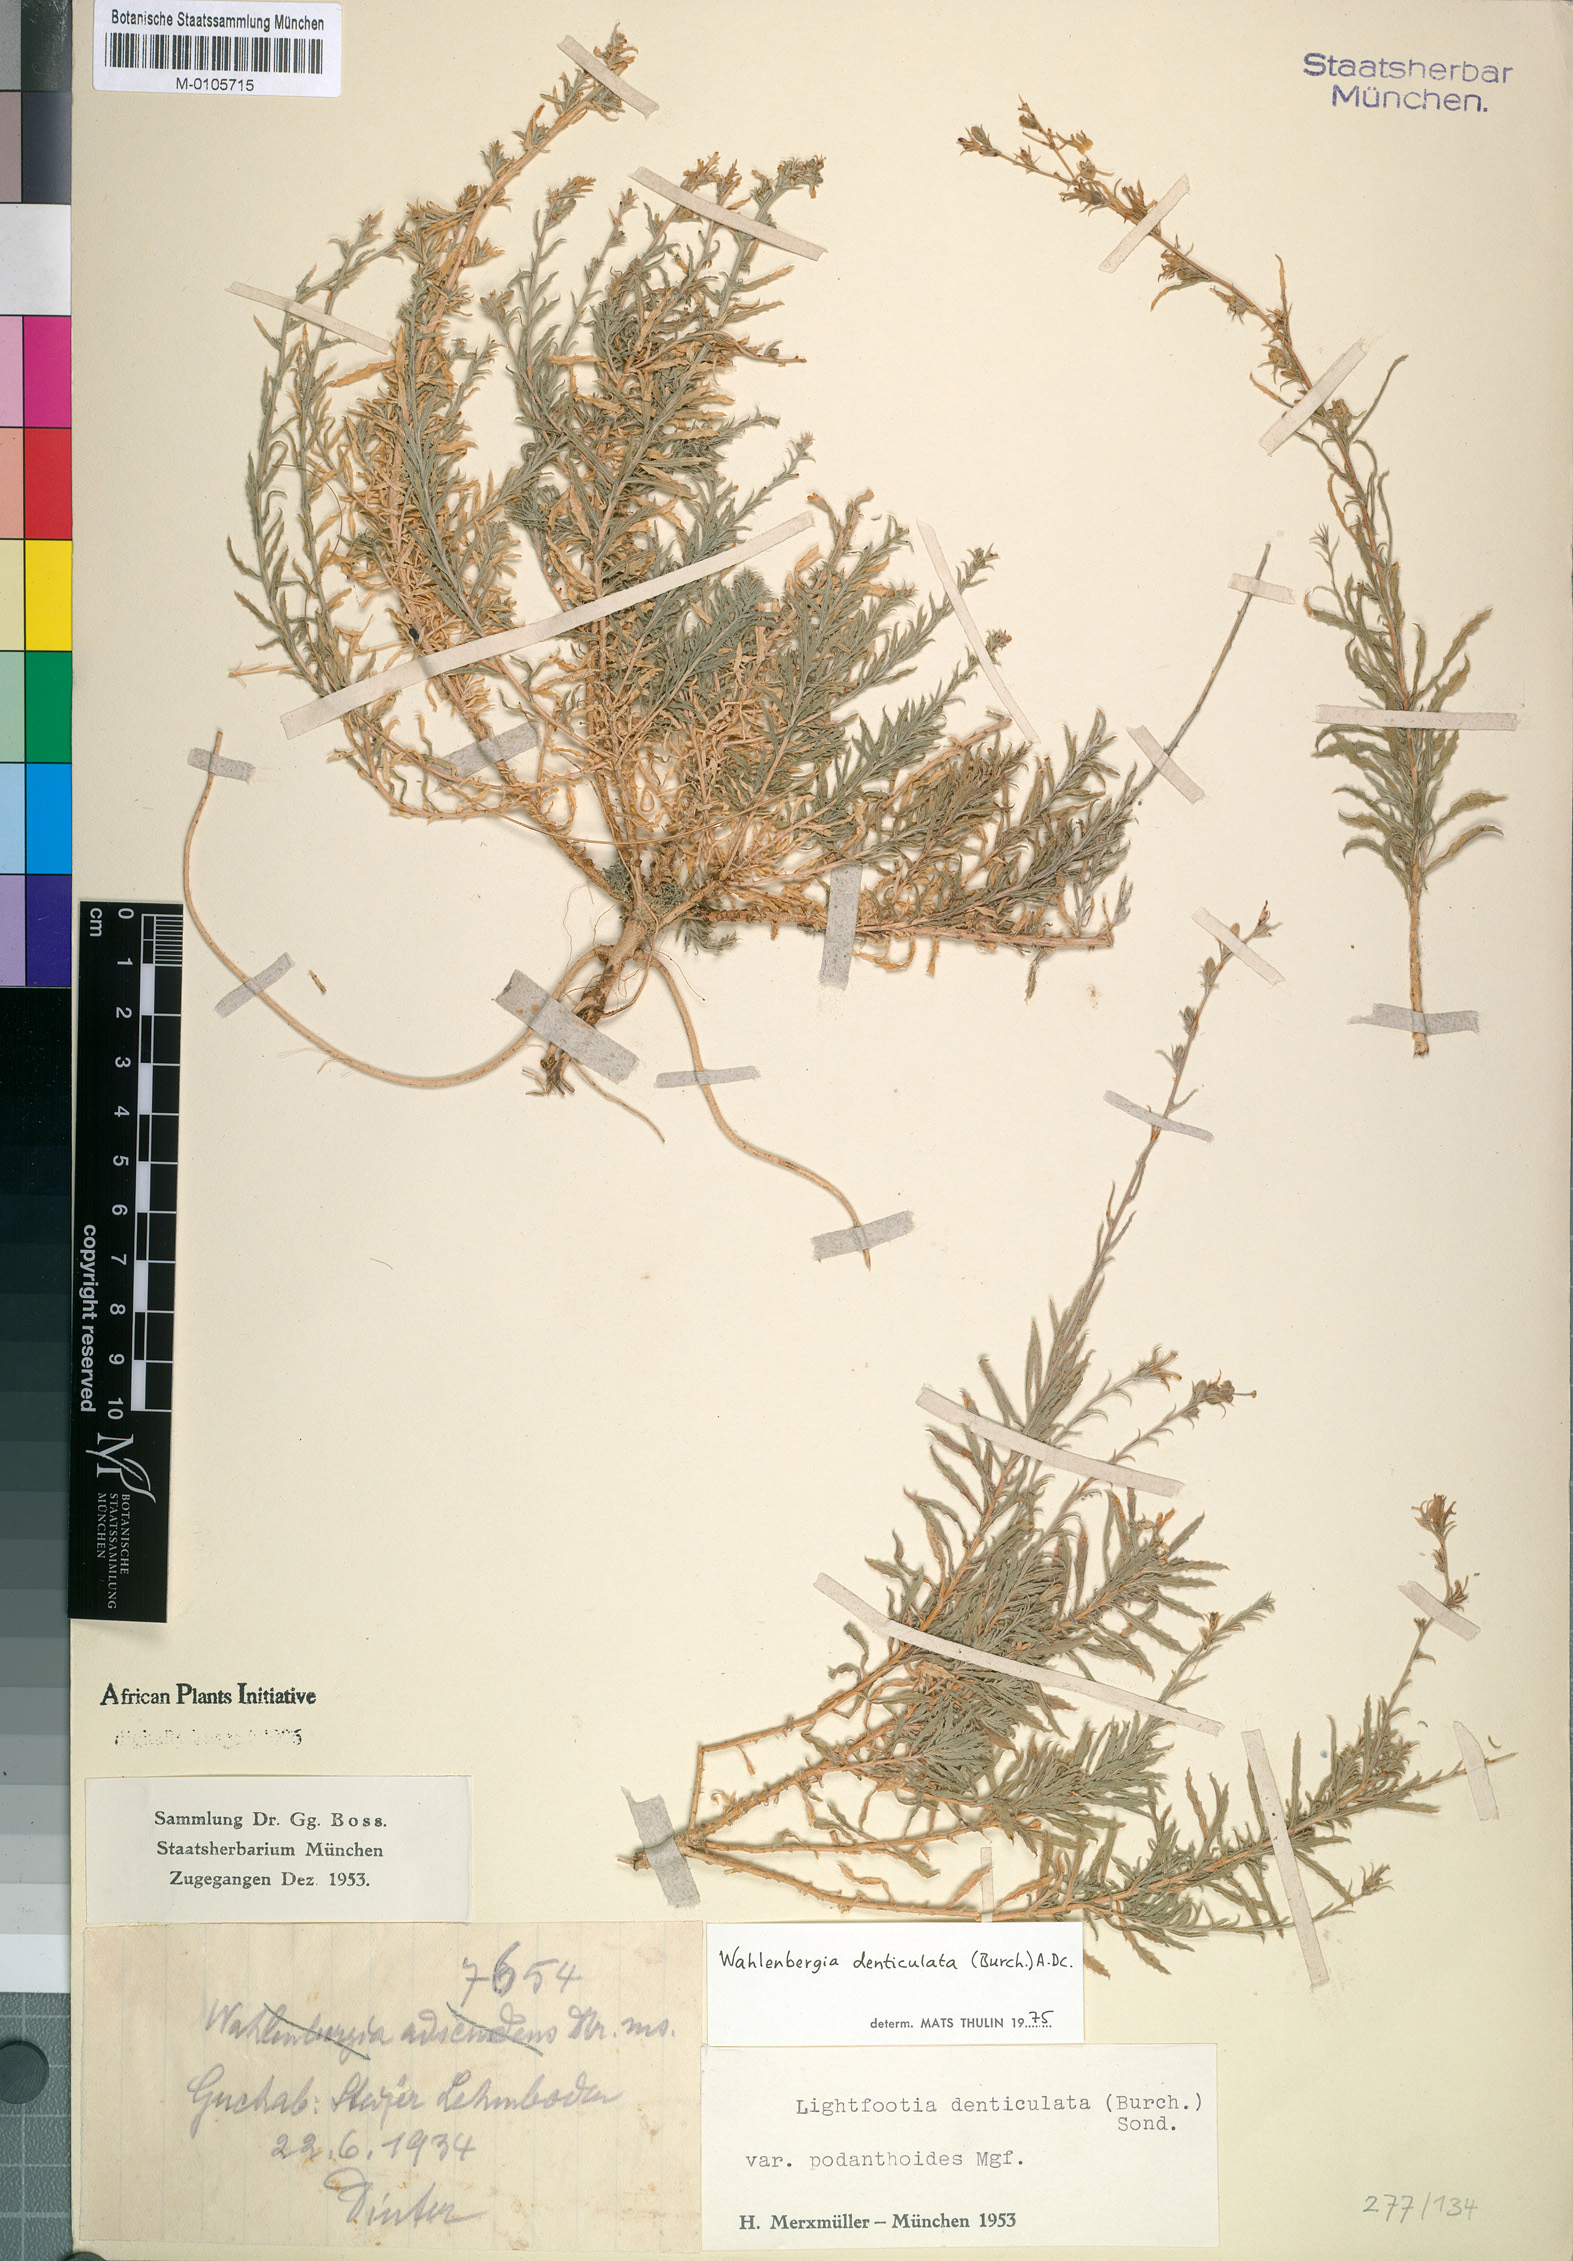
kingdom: Plantae
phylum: Tracheophyta
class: Magnoliopsida
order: Asterales
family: Campanulaceae
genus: Wahlenbergia
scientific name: Wahlenbergia denticulata
